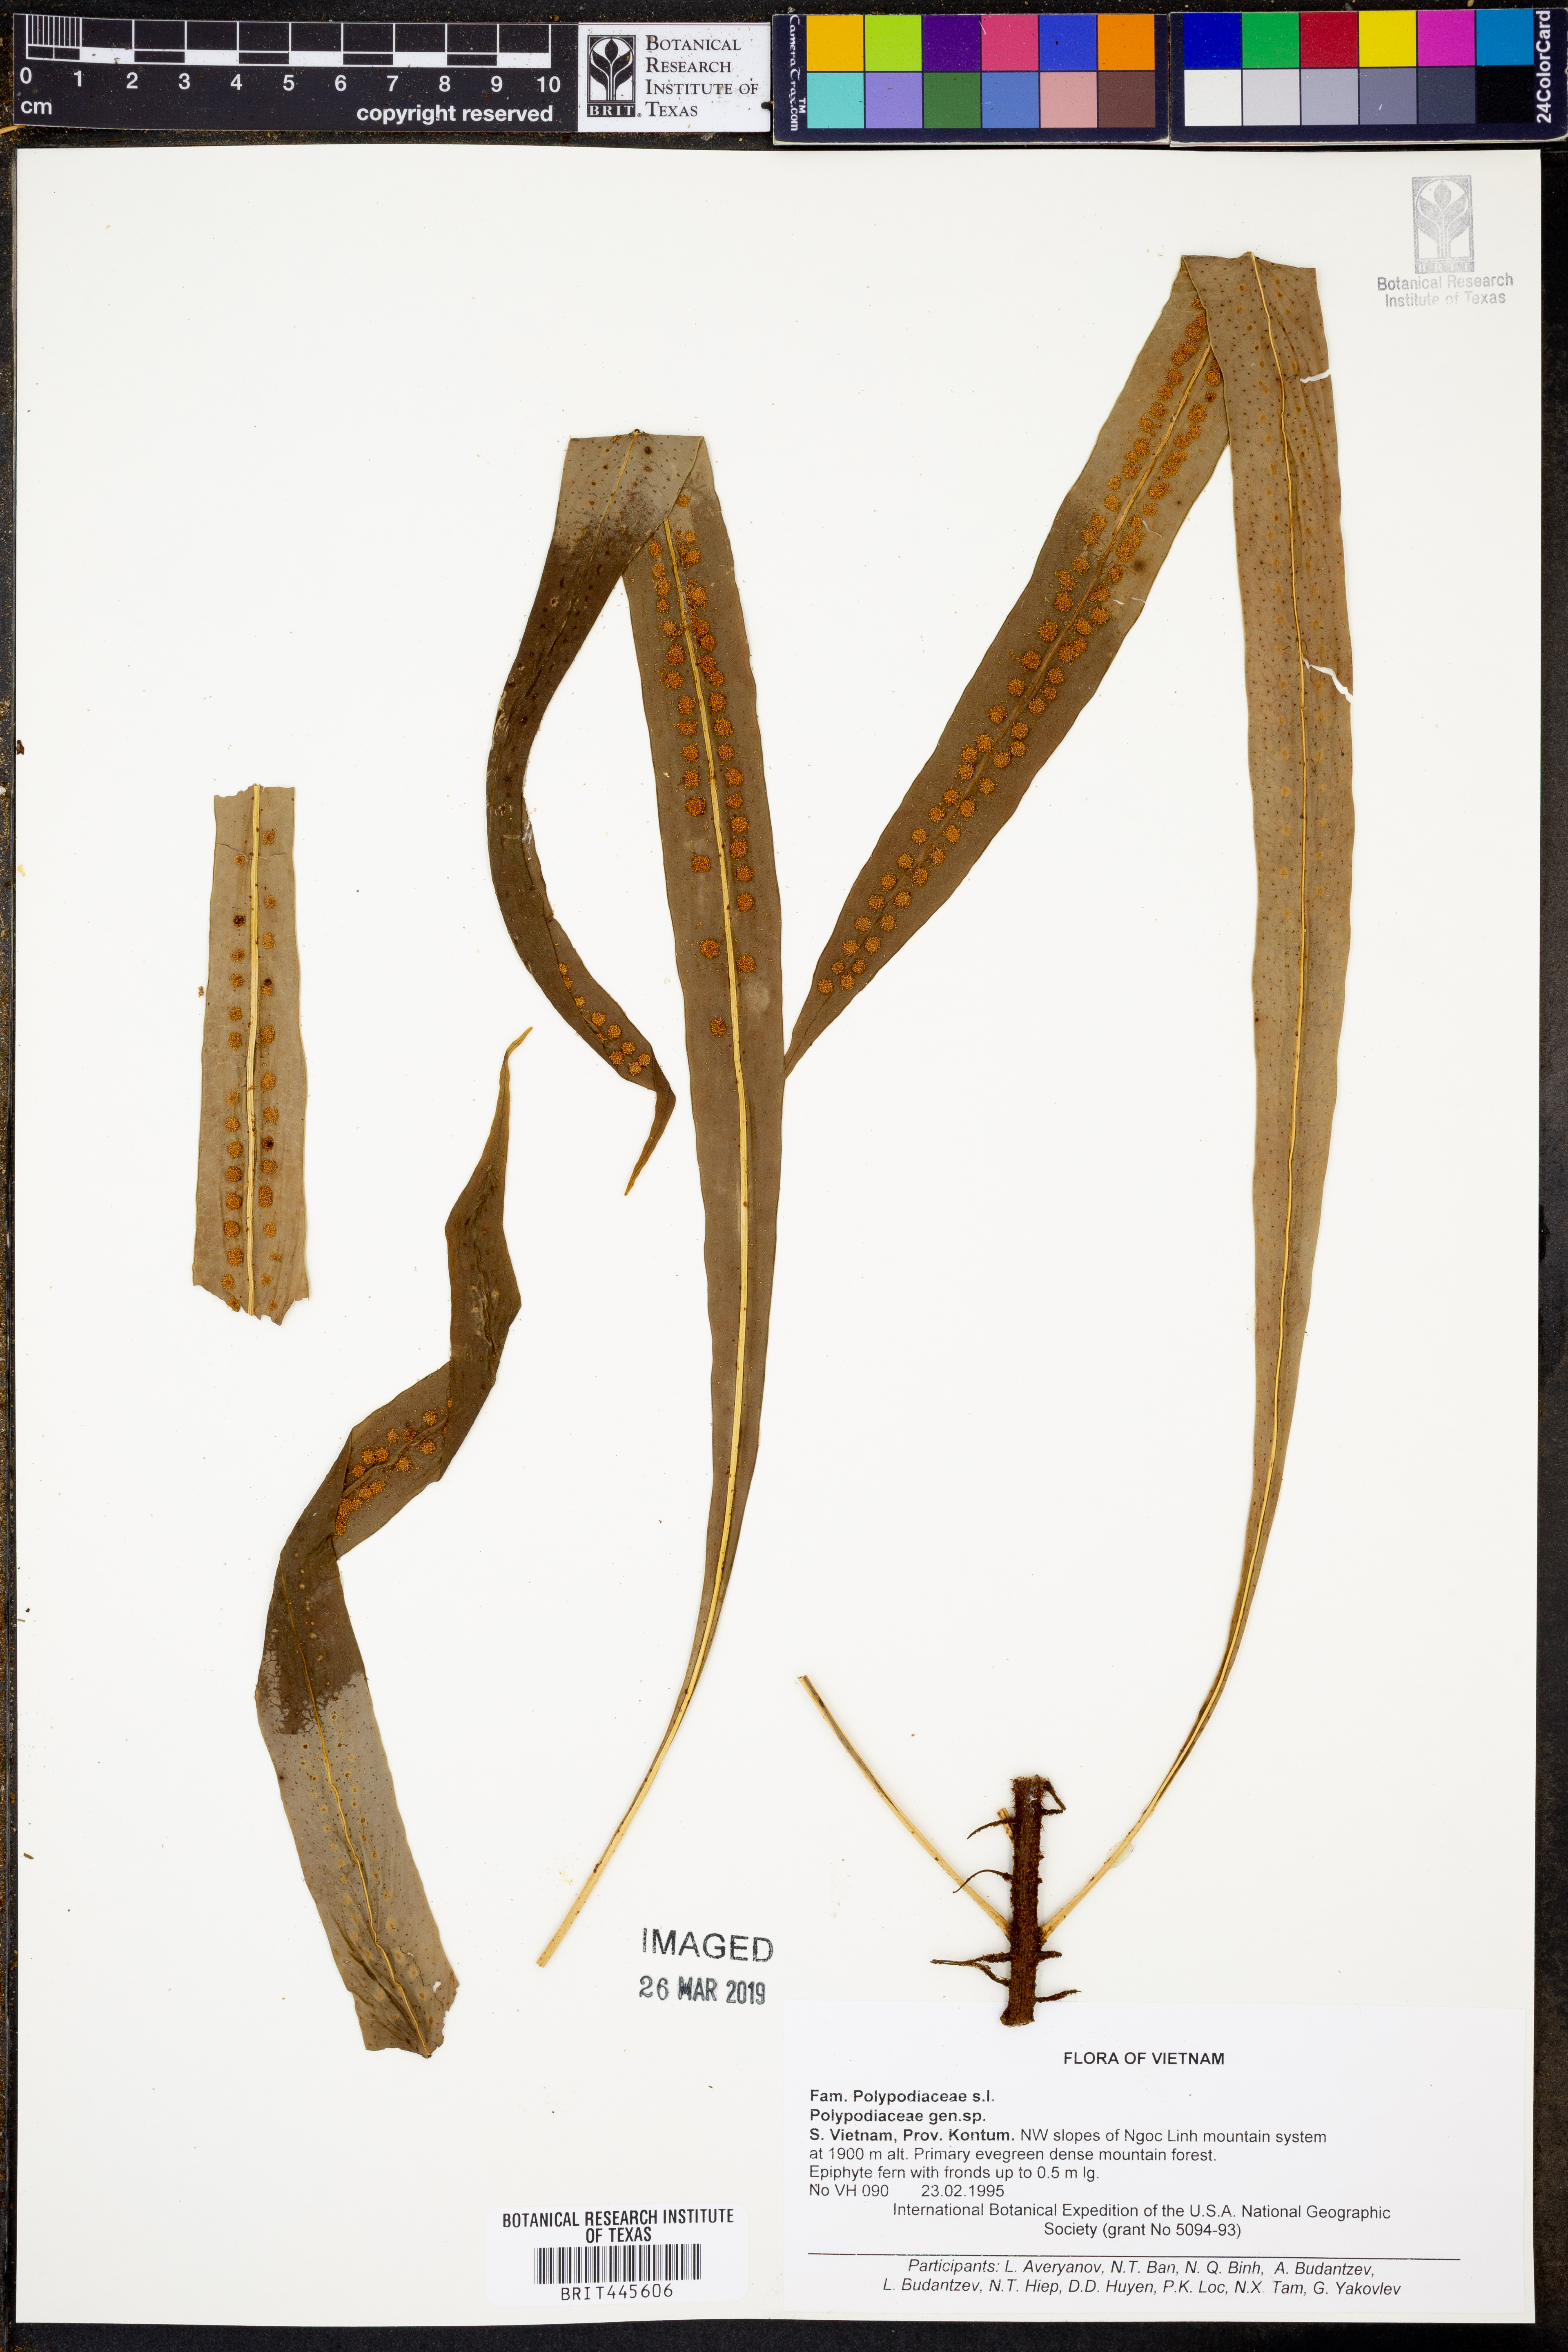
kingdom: Plantae
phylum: Tracheophyta
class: Polypodiopsida
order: Polypodiales
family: Polypodiaceae
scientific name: Polypodiaceae
